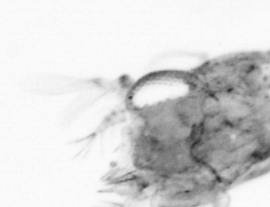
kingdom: Animalia
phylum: Arthropoda
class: Copepoda
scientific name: Copepoda
